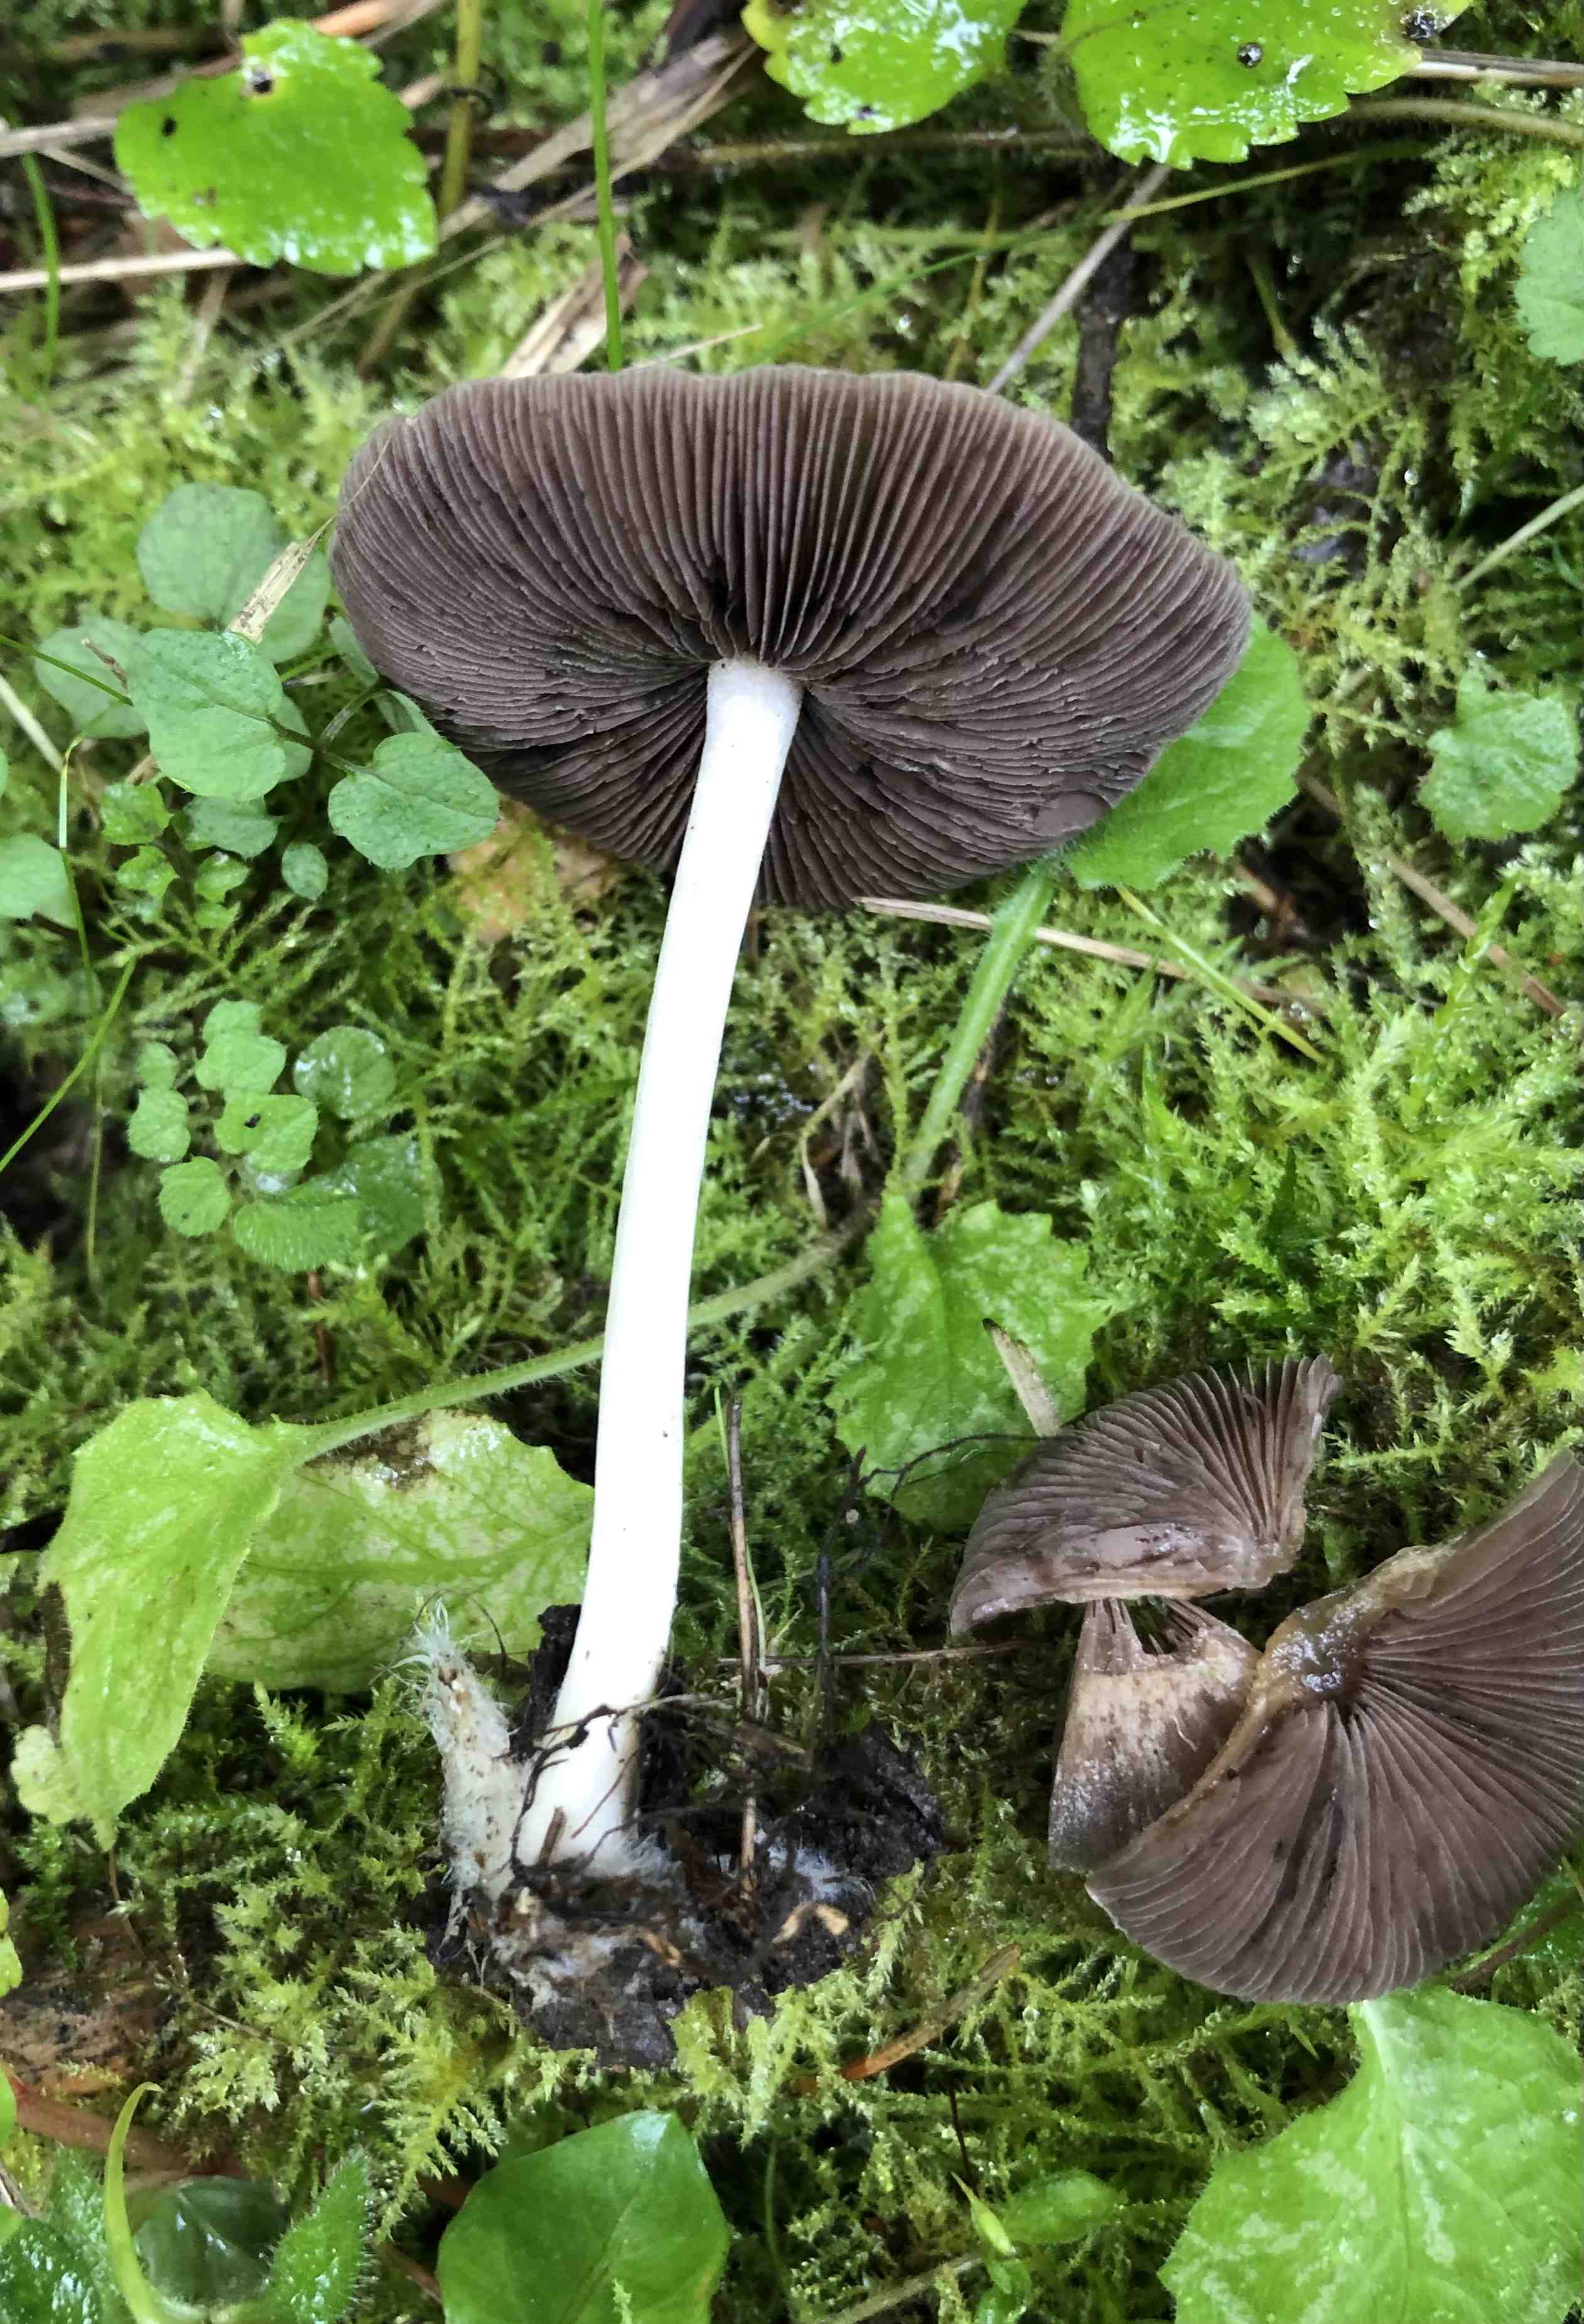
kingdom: Fungi
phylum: Basidiomycota
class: Agaricomycetes
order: Agaricales
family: Psathyrellaceae
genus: Psathyrella
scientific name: Psathyrella
